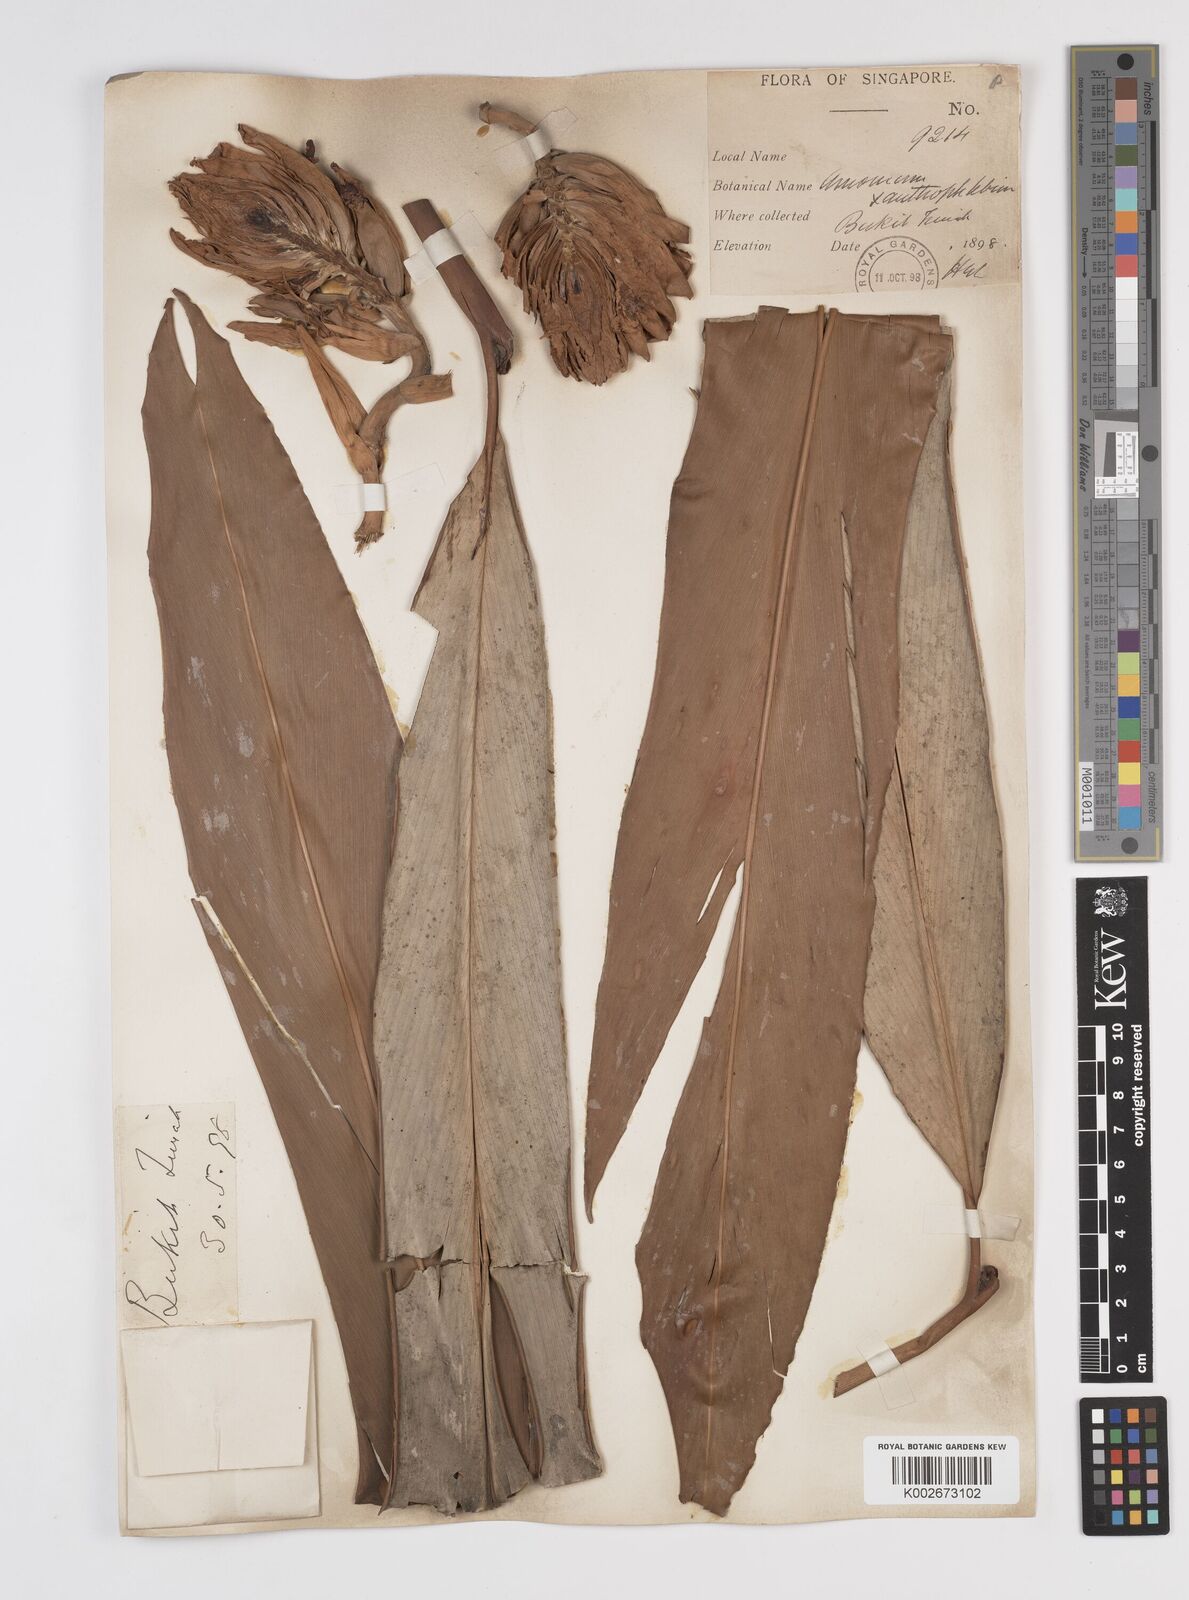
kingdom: Plantae
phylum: Tracheophyta
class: Liliopsida
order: Zingiberales
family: Zingiberaceae
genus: Conamomum
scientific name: Conamomum xanthophlebium
